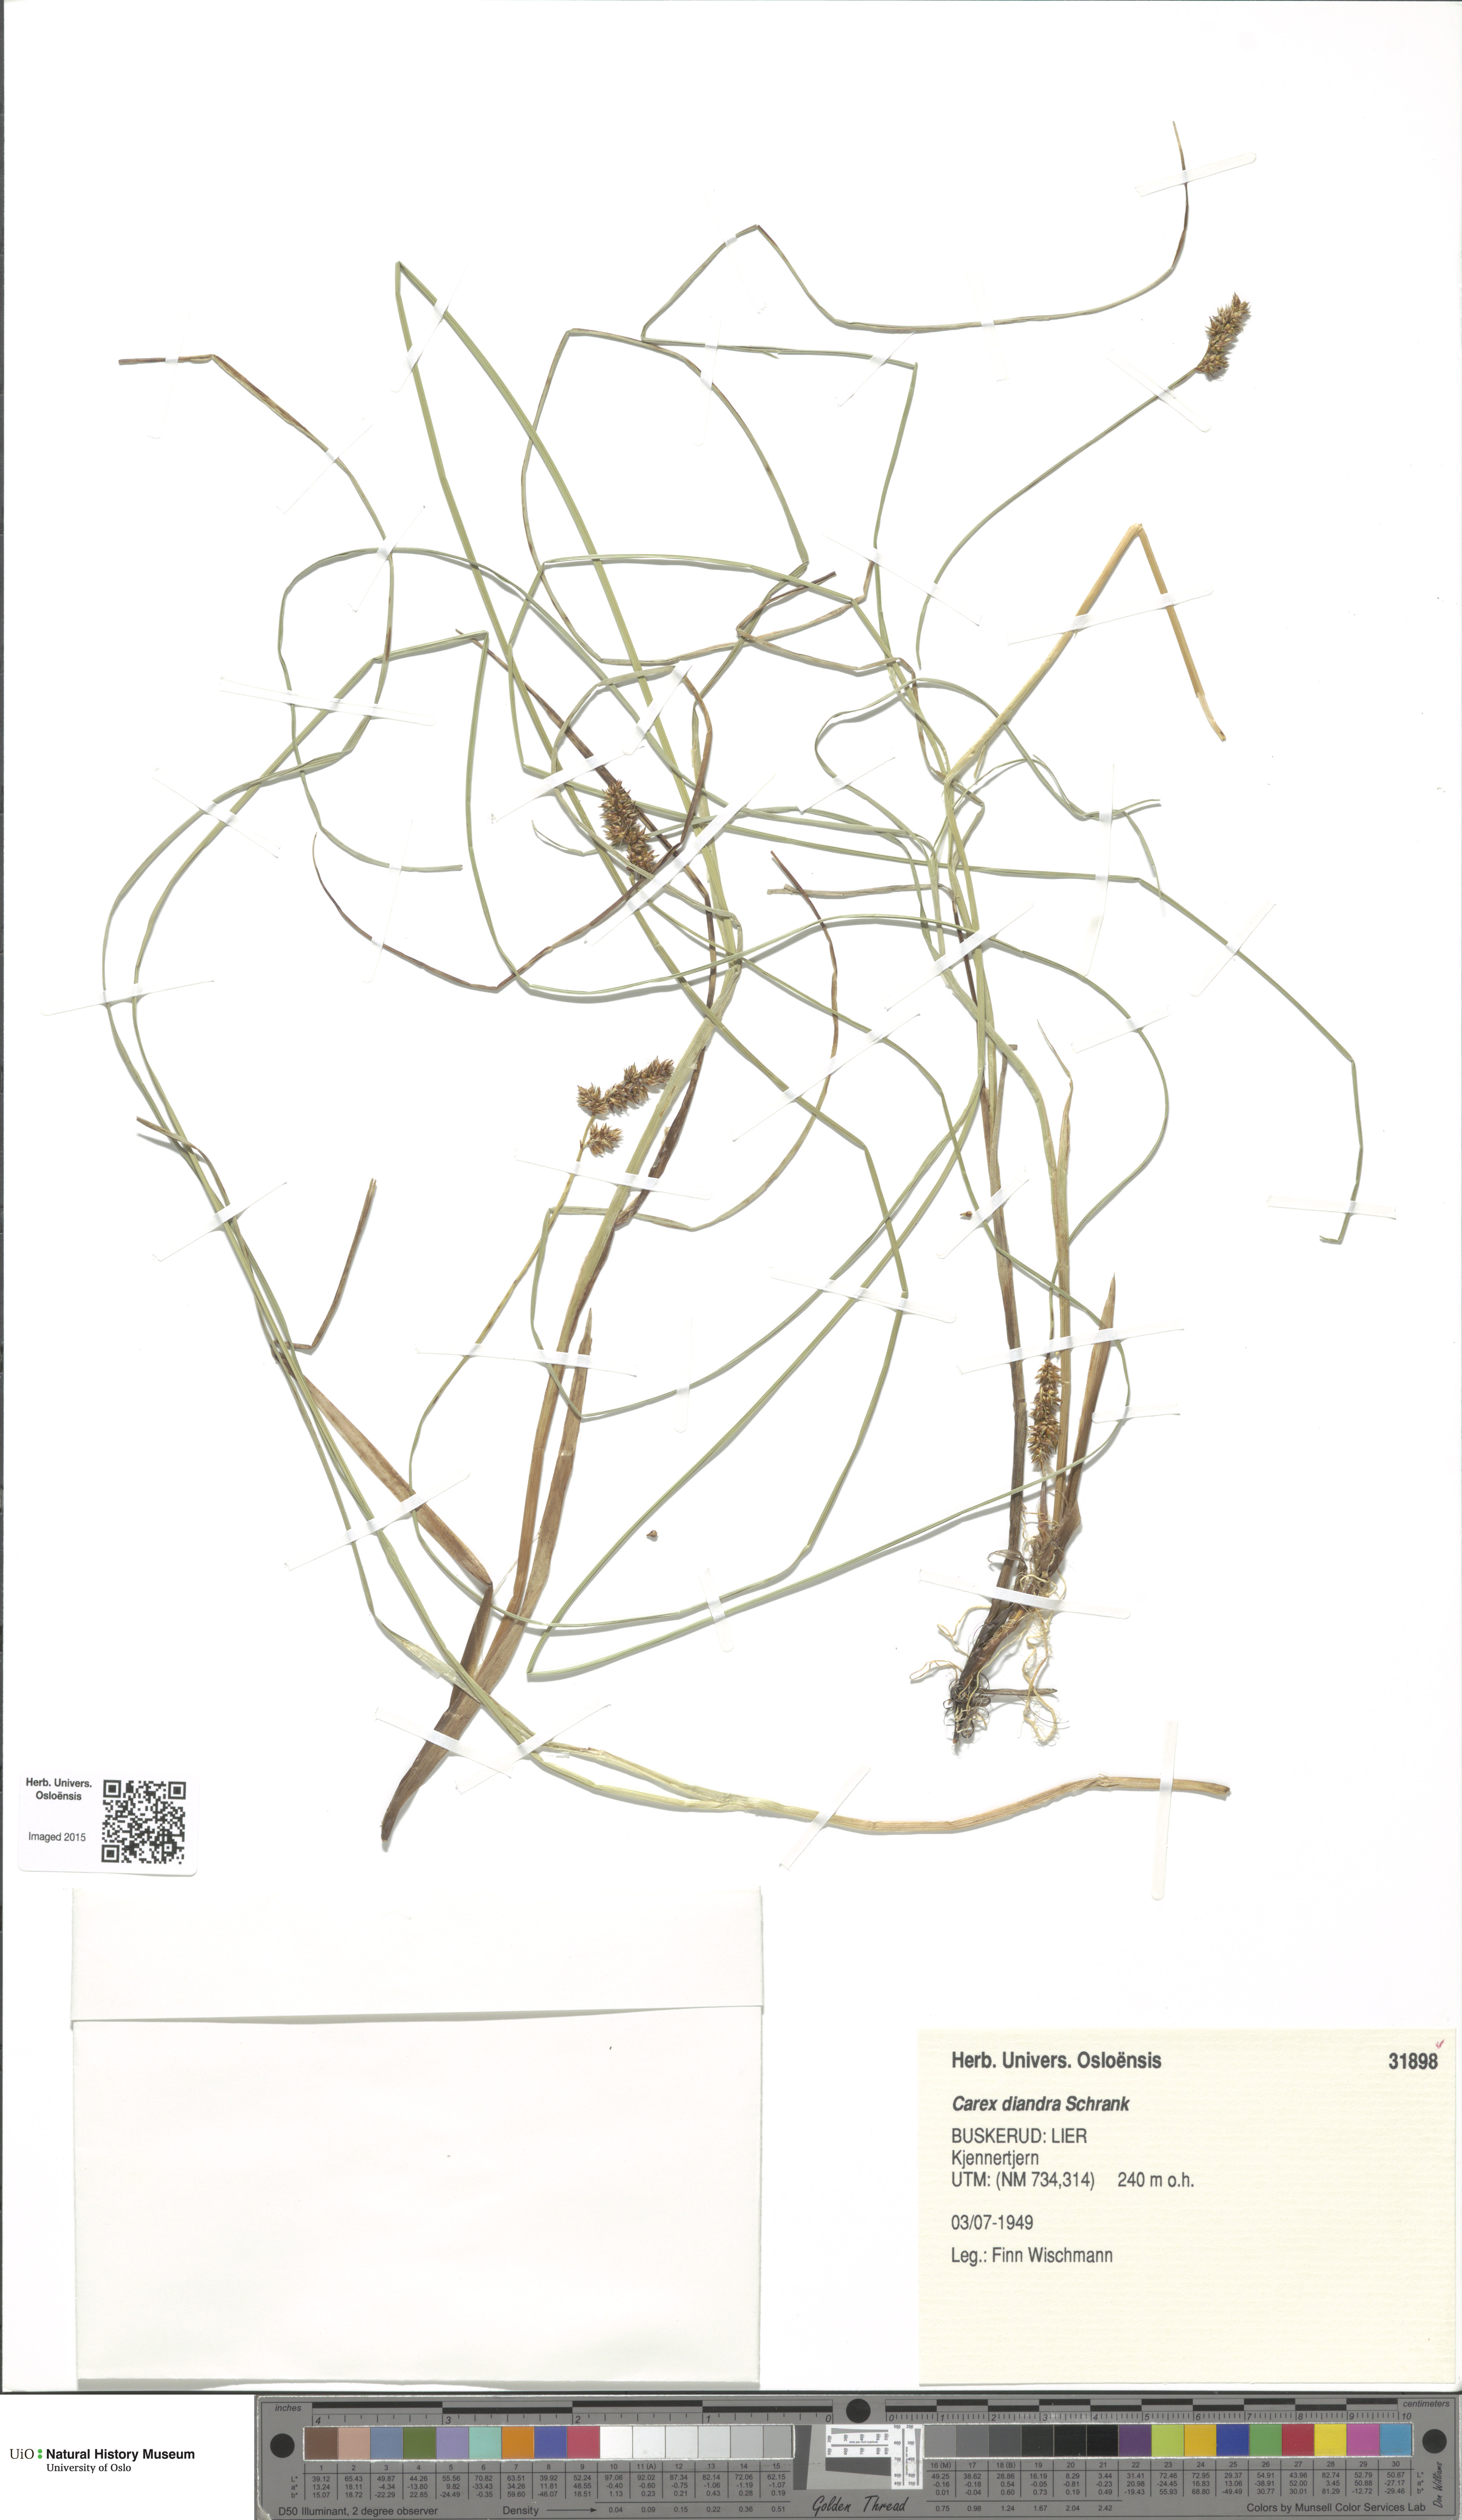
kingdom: Plantae
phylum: Tracheophyta
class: Liliopsida
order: Poales
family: Cyperaceae
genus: Carex
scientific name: Carex diandra
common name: Lesser tussock-sedge
